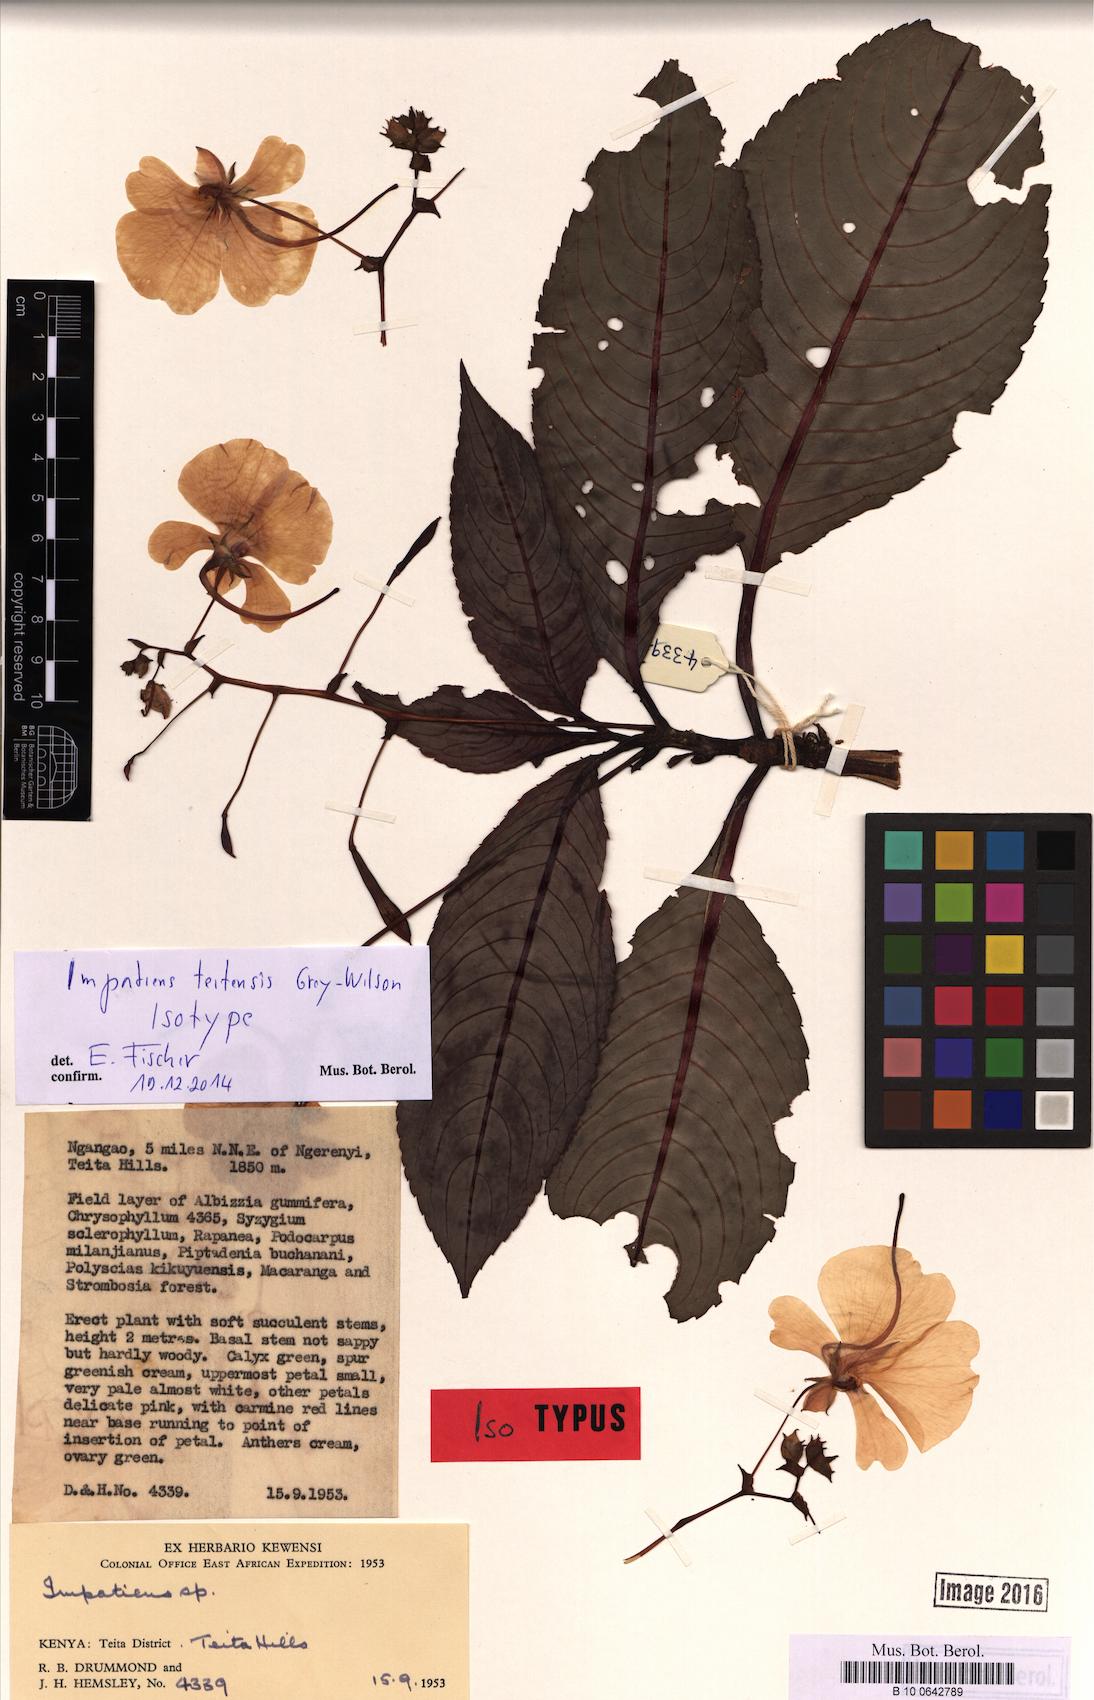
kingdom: Plantae
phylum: Tracheophyta
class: Magnoliopsida
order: Ericales
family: Balsaminaceae
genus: Impatiens
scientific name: Impatiens teitensis
